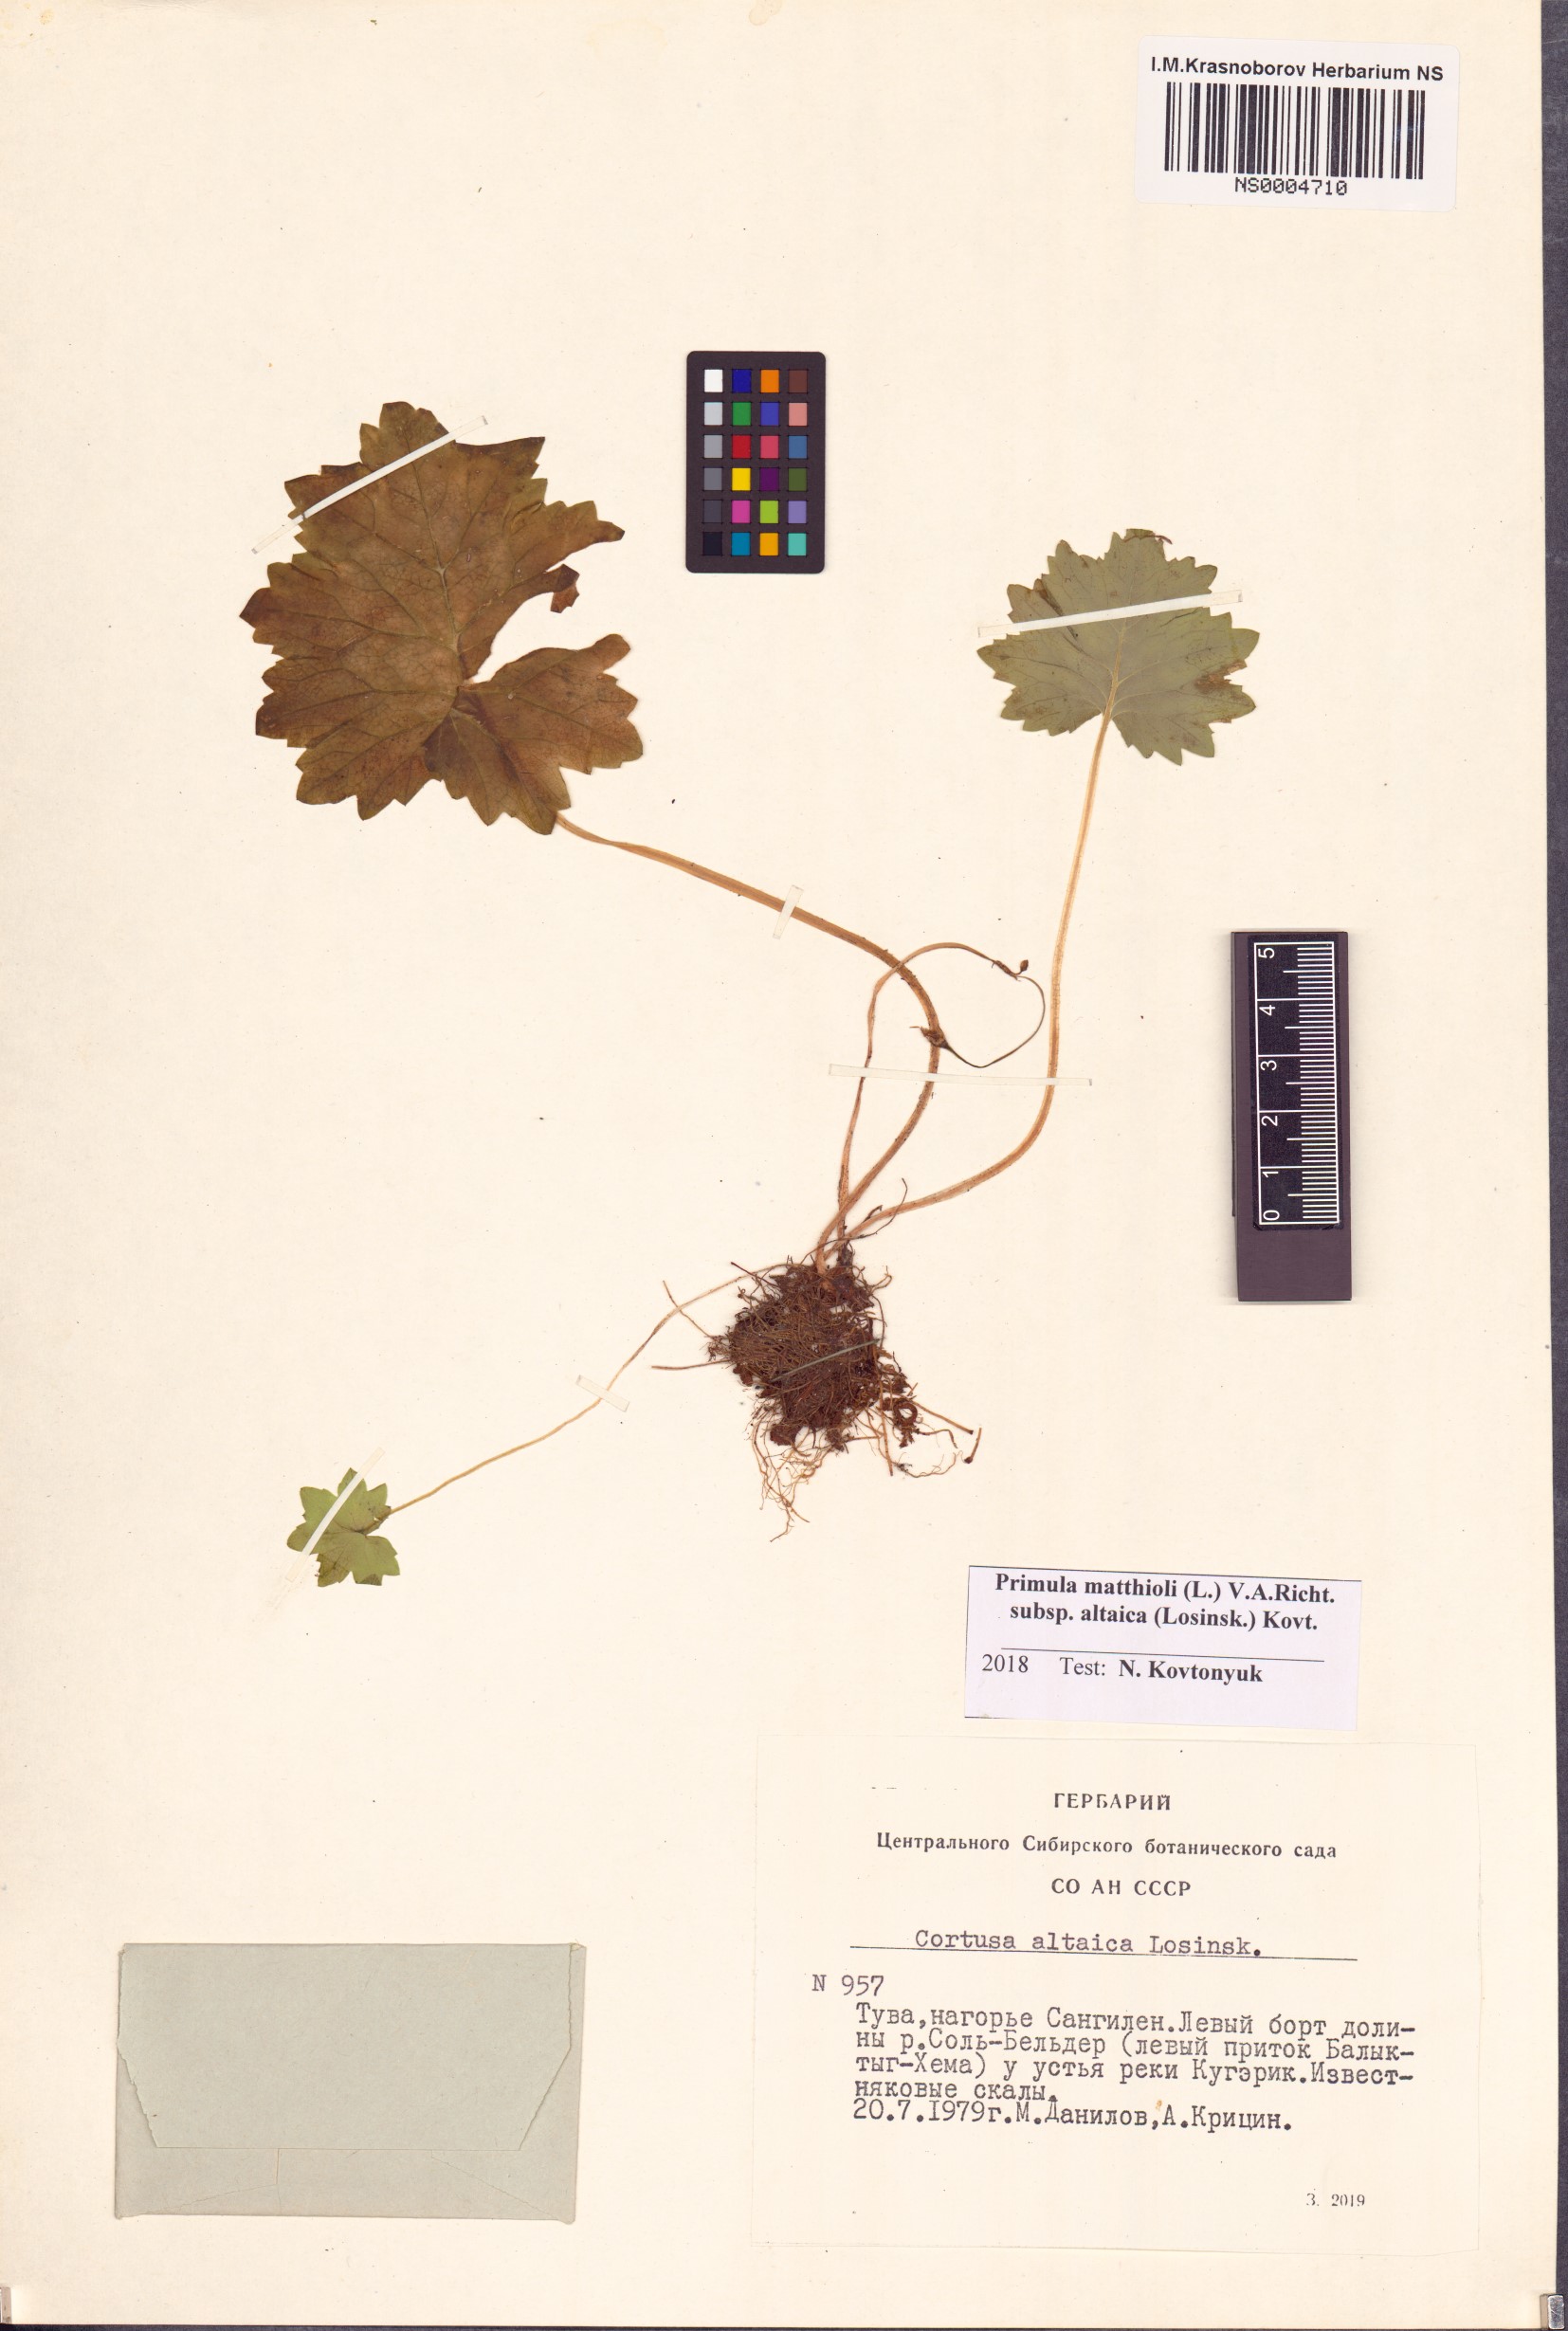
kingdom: Plantae
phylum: Tracheophyta
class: Magnoliopsida
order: Ericales
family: Primulaceae
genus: Primula
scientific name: Primula matthioli
